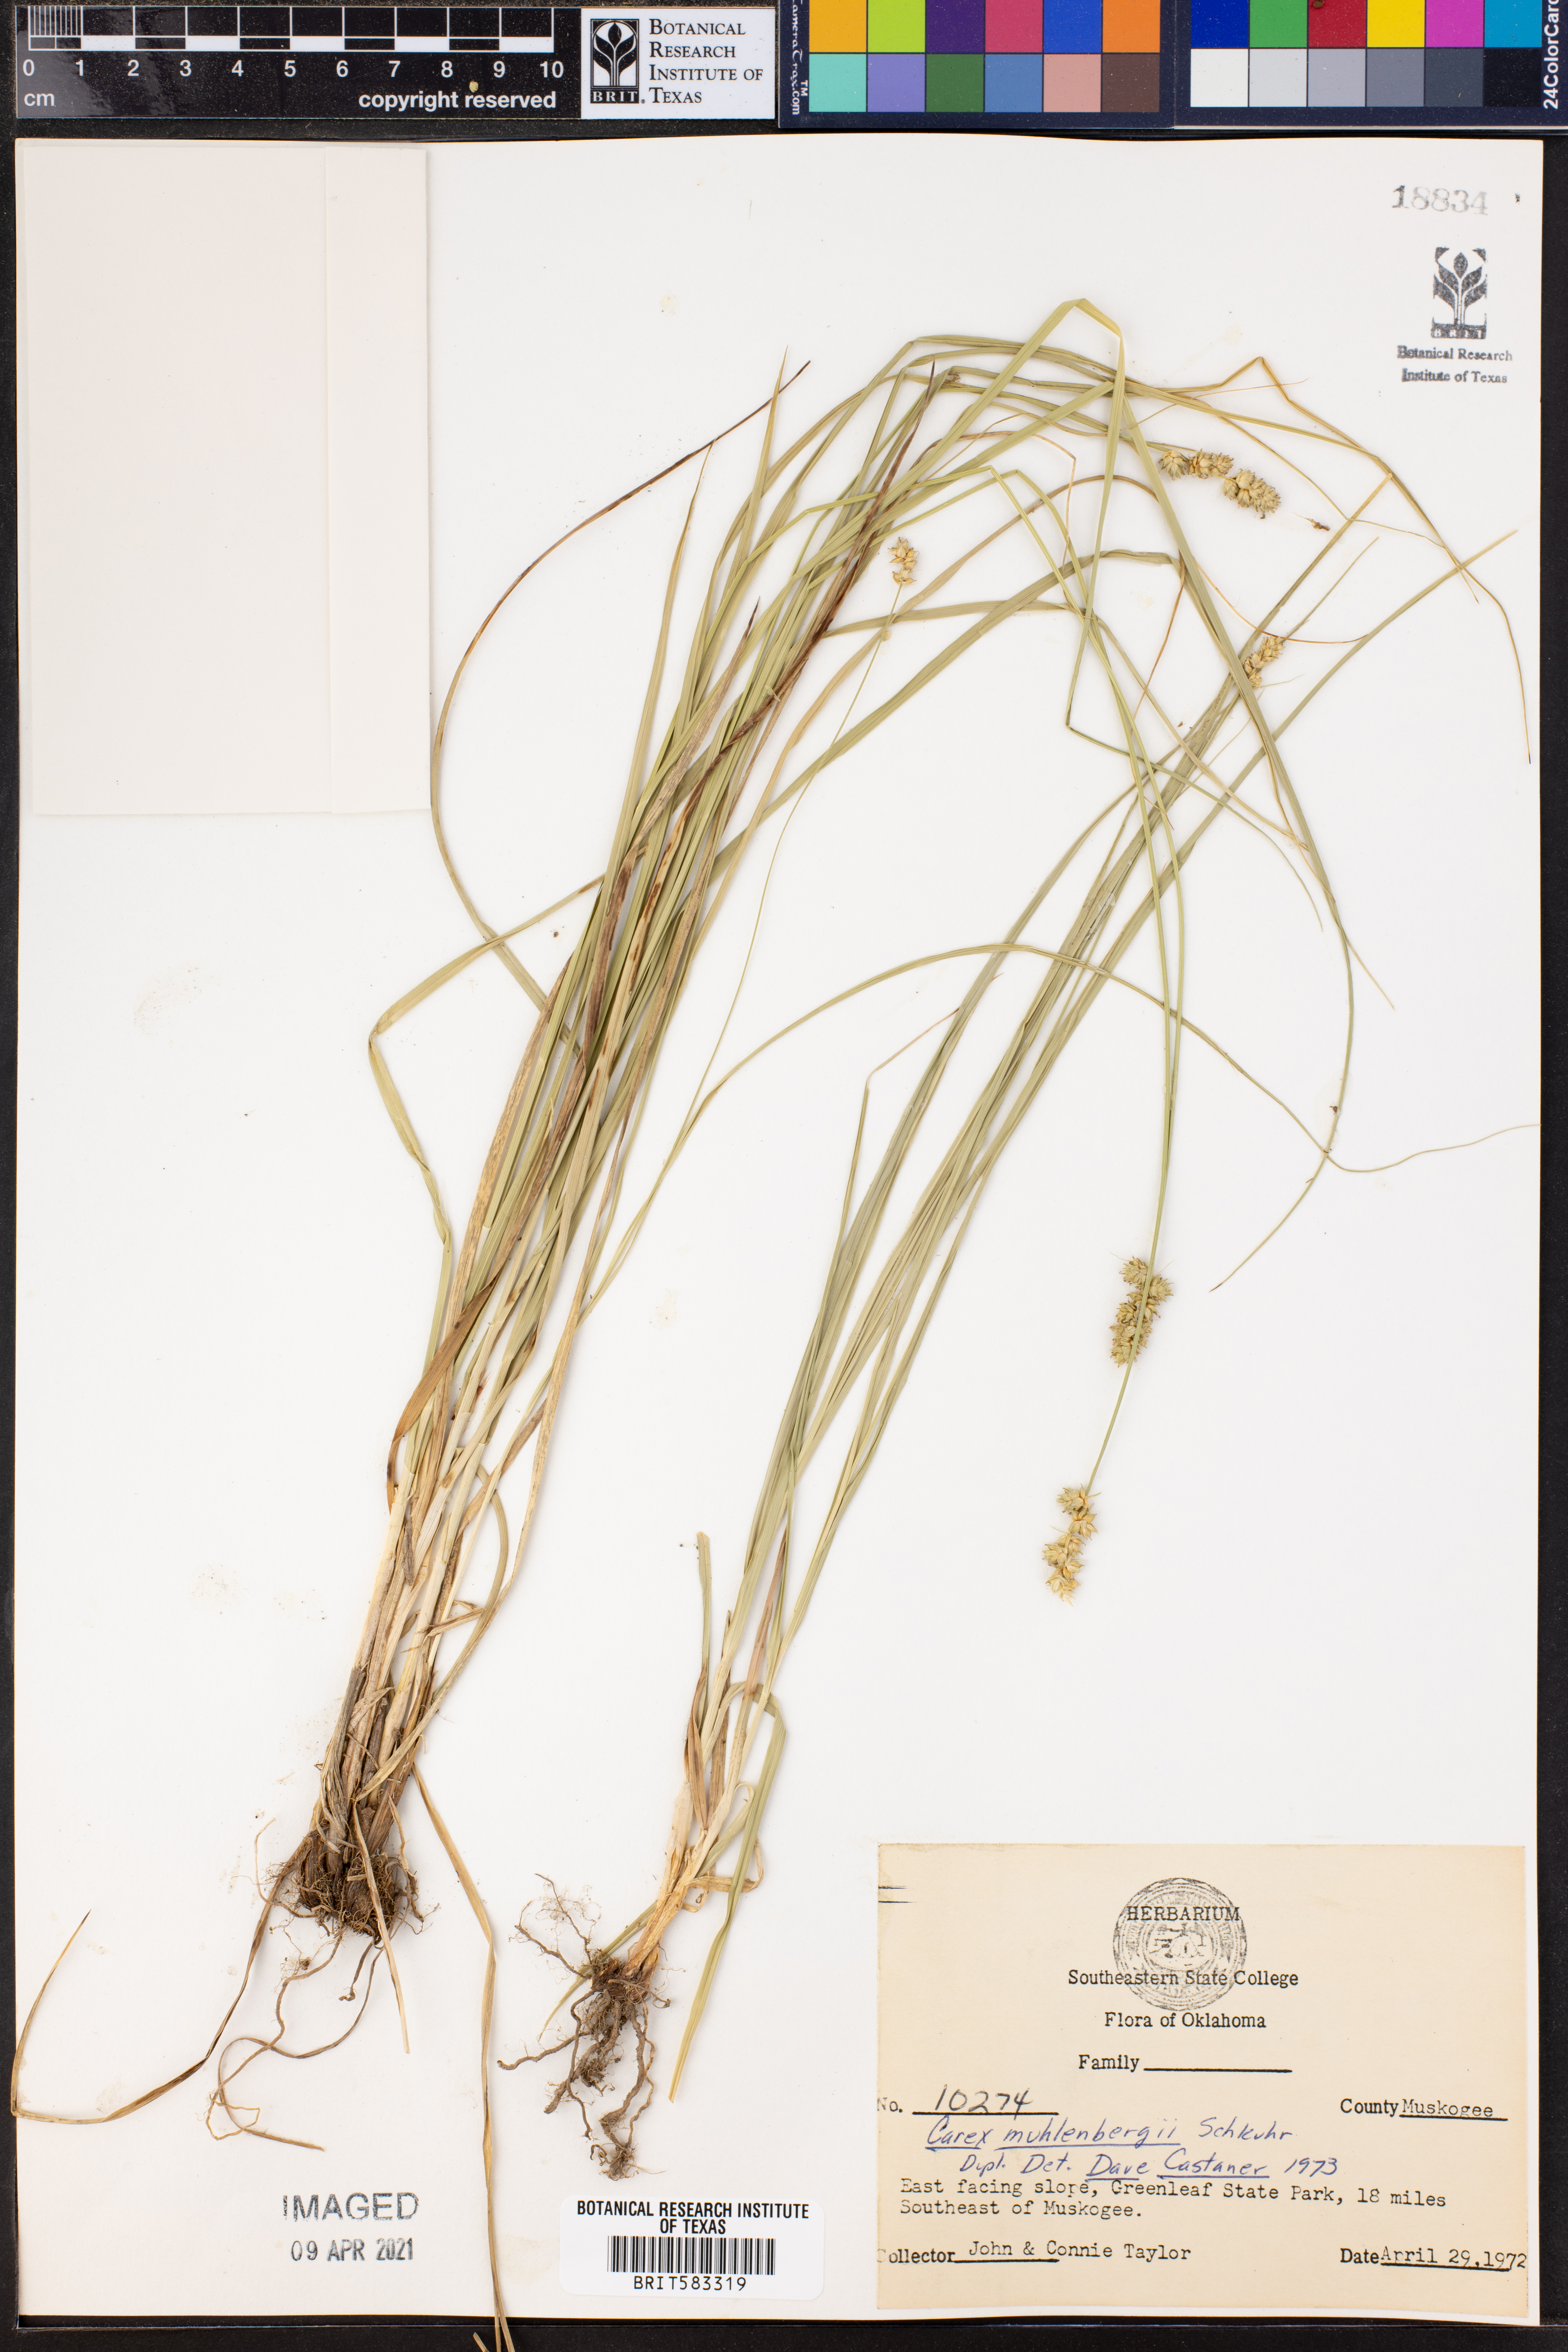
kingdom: Plantae
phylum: Tracheophyta
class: Liliopsida
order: Poales
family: Cyperaceae
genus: Carex
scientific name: Carex vulpinoidea
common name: American fox-sedge
